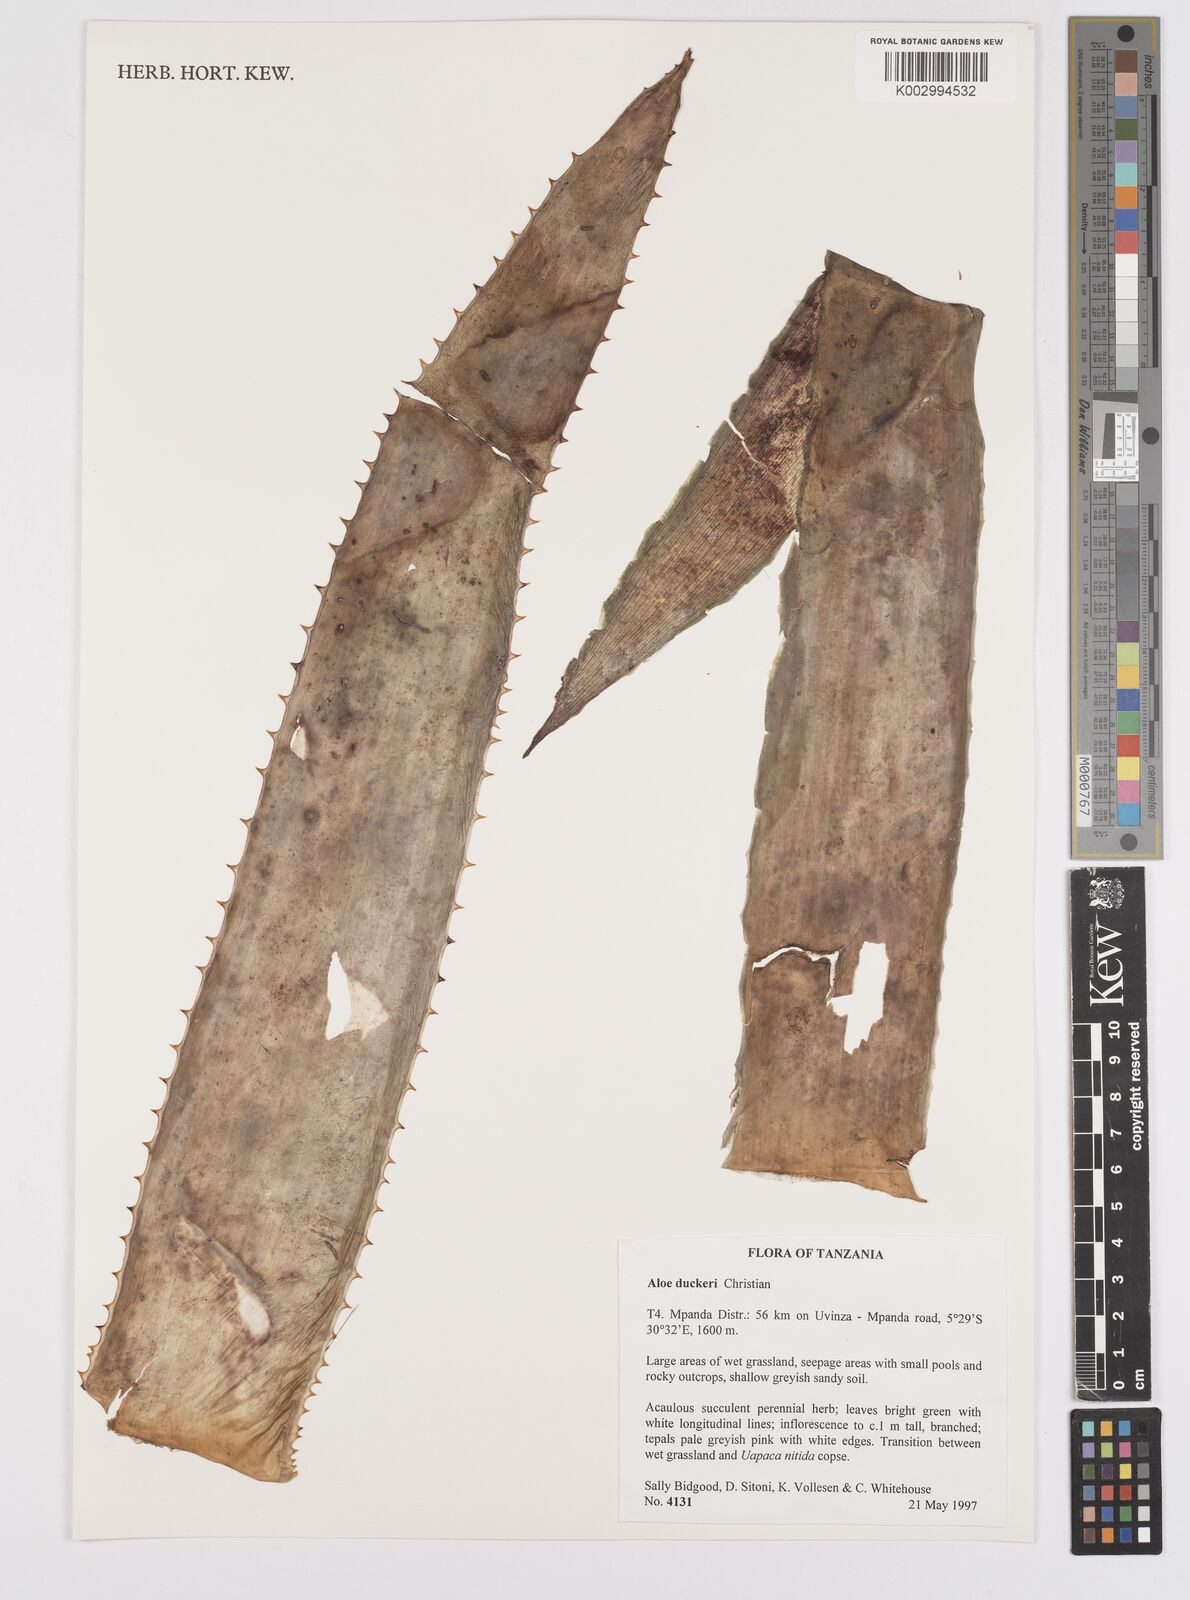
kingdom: Plantae
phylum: Tracheophyta
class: Liliopsida
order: Asparagales
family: Asphodelaceae
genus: Aloe
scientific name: Aloe duckeri
